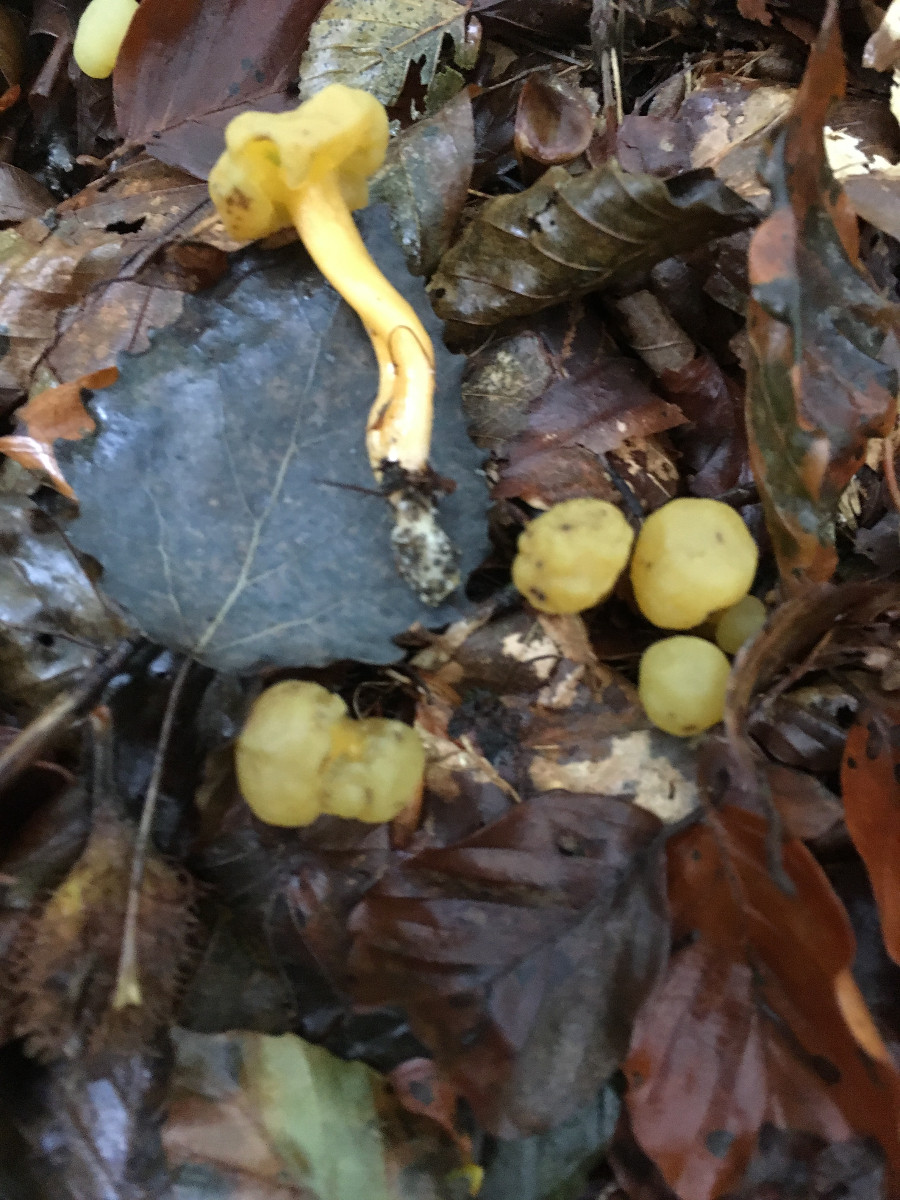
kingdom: Fungi
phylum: Ascomycota
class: Leotiomycetes
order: Leotiales
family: Leotiaceae
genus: Leotia
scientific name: Leotia lubrica
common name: ravsvamp
